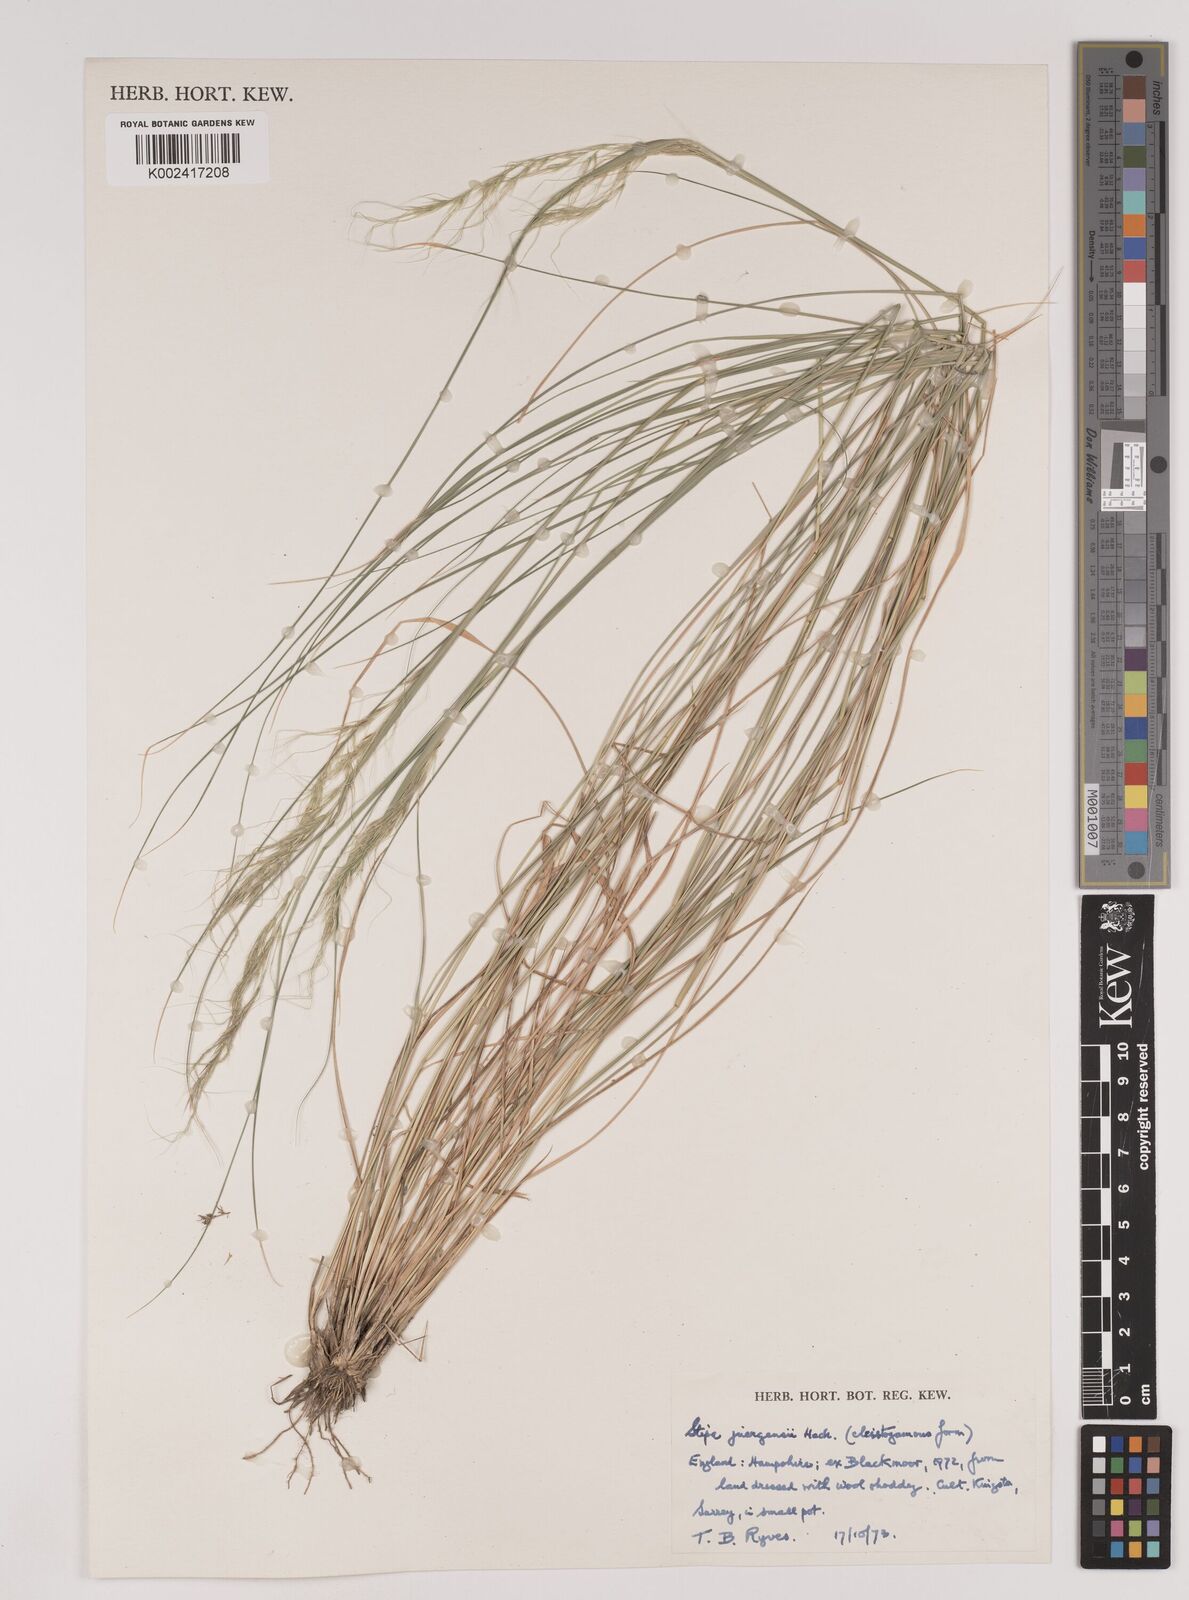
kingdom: Plantae
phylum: Tracheophyta
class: Liliopsida
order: Poales
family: Poaceae
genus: Nassella
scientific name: Nassella juergensii
